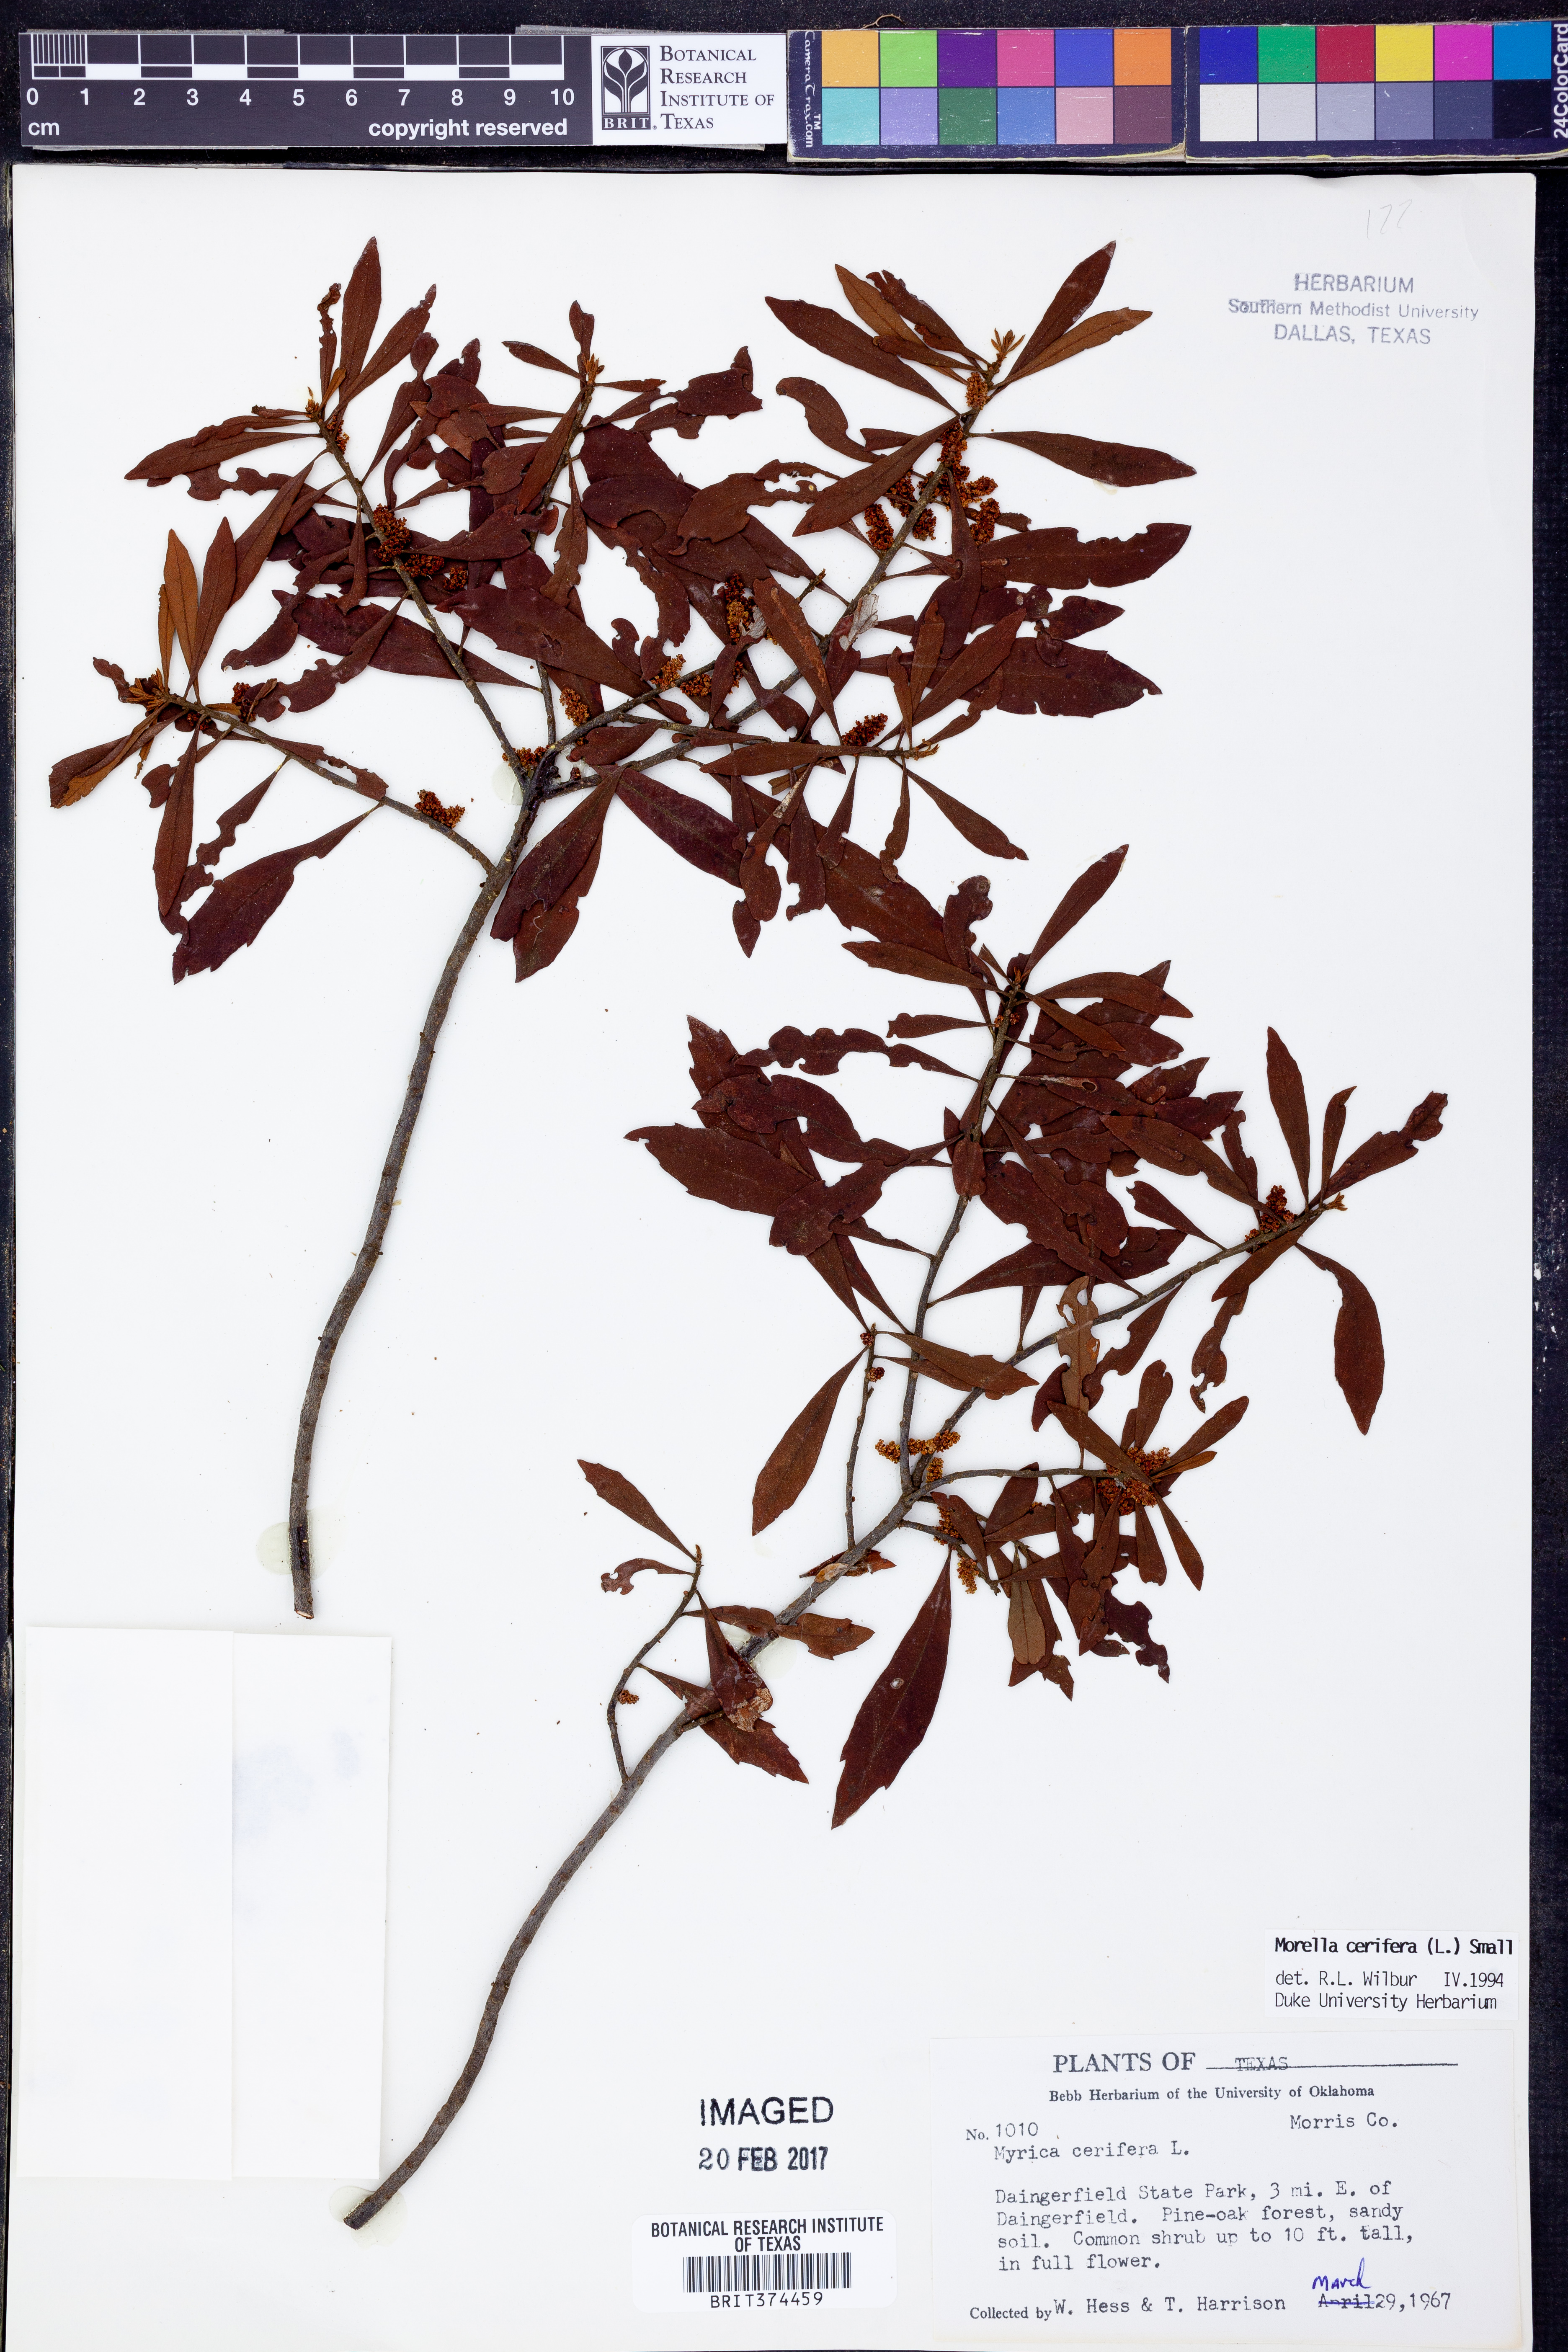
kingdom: Plantae
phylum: Tracheophyta
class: Magnoliopsida
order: Fagales
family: Myricaceae
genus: Morella
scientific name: Morella cerifera
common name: Wax myrtle
